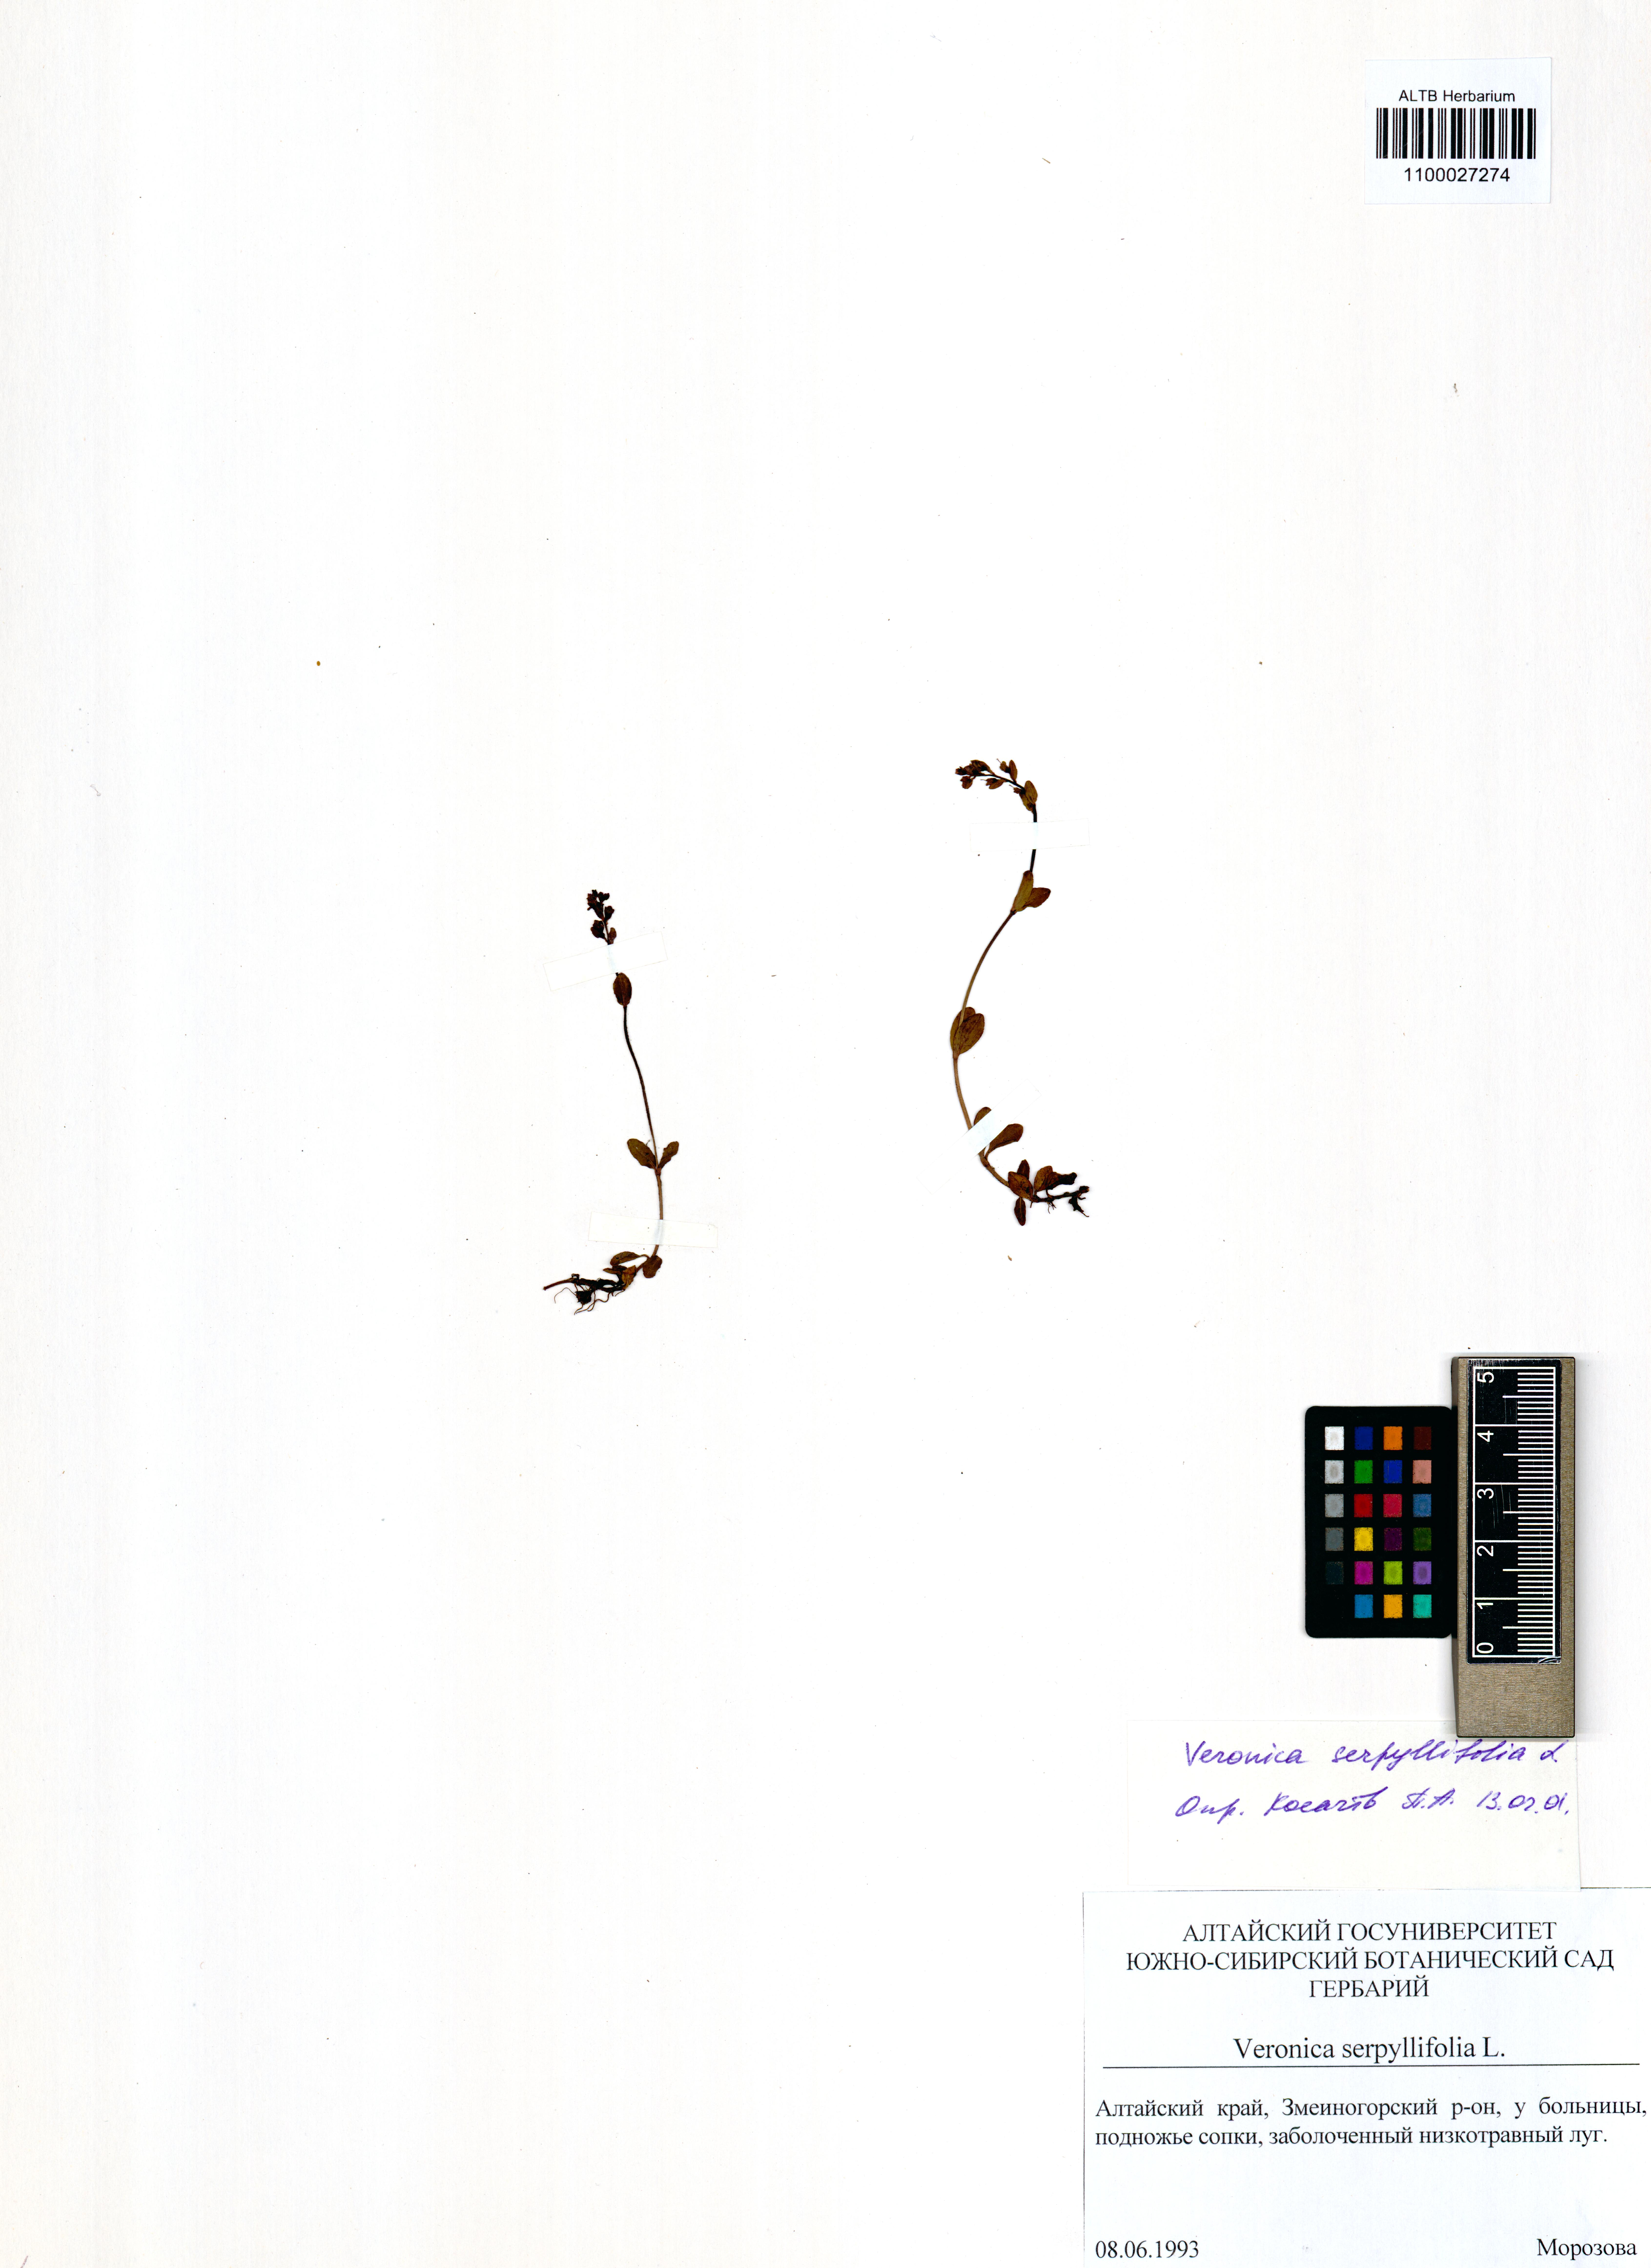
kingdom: Plantae
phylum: Tracheophyta
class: Magnoliopsida
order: Lamiales
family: Plantaginaceae
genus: Veronica
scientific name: Veronica serpyllifolia
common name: Thyme-leaved speedwell
